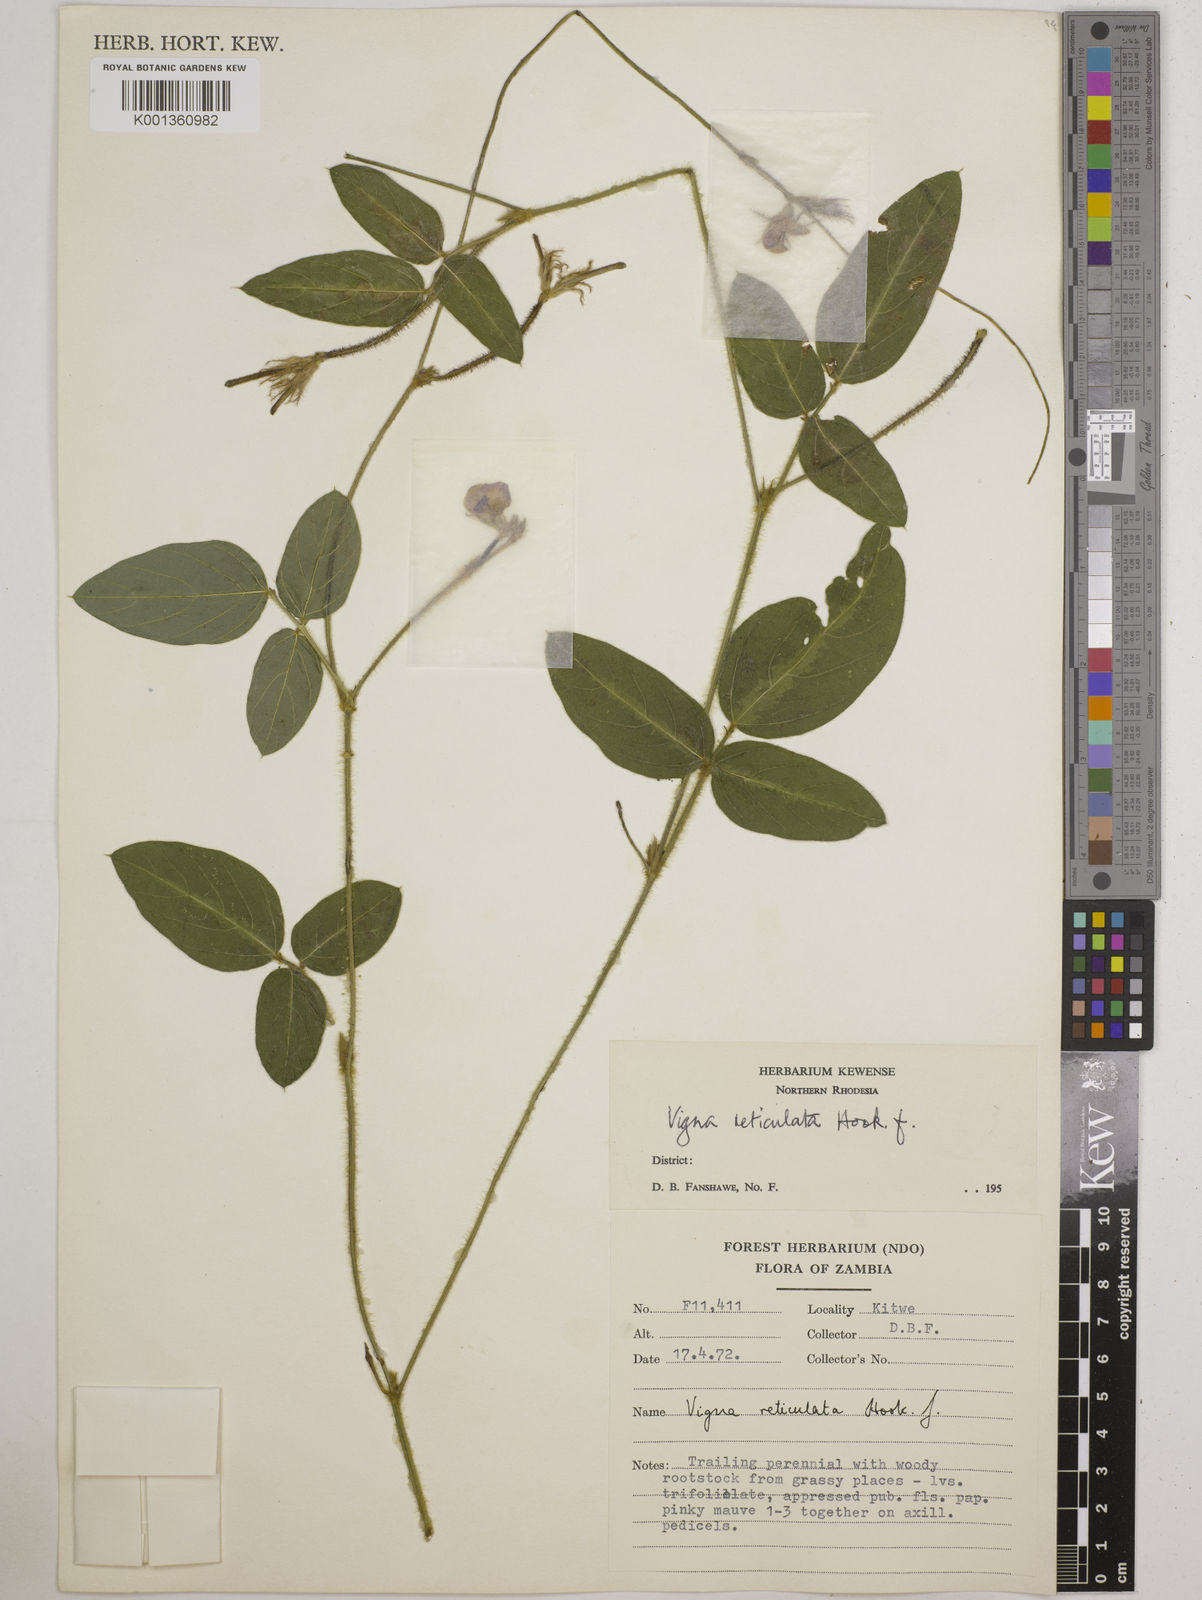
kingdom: Plantae
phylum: Tracheophyta
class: Magnoliopsida
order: Fabales
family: Fabaceae
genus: Vigna
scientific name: Vigna reticulata
